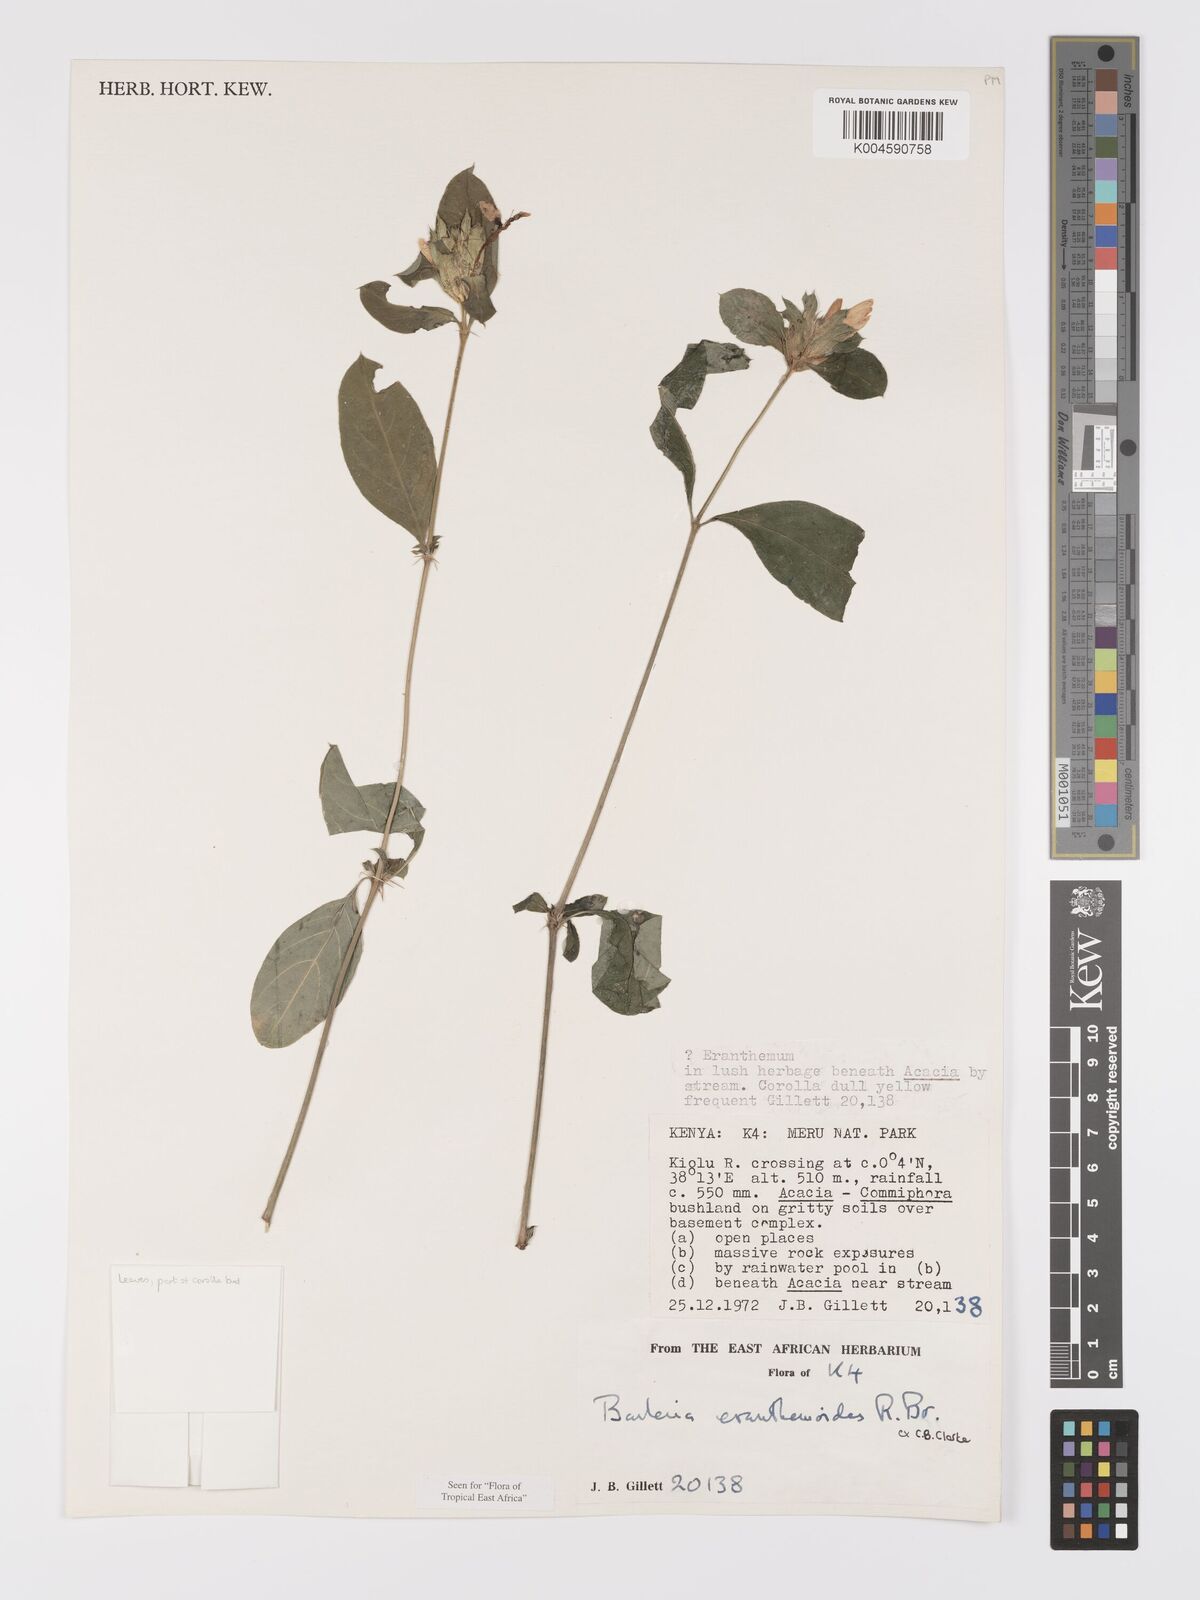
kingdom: Plantae
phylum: Tracheophyta
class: Magnoliopsida
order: Lamiales
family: Acanthaceae
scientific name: Acanthaceae
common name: Acanthaceae
